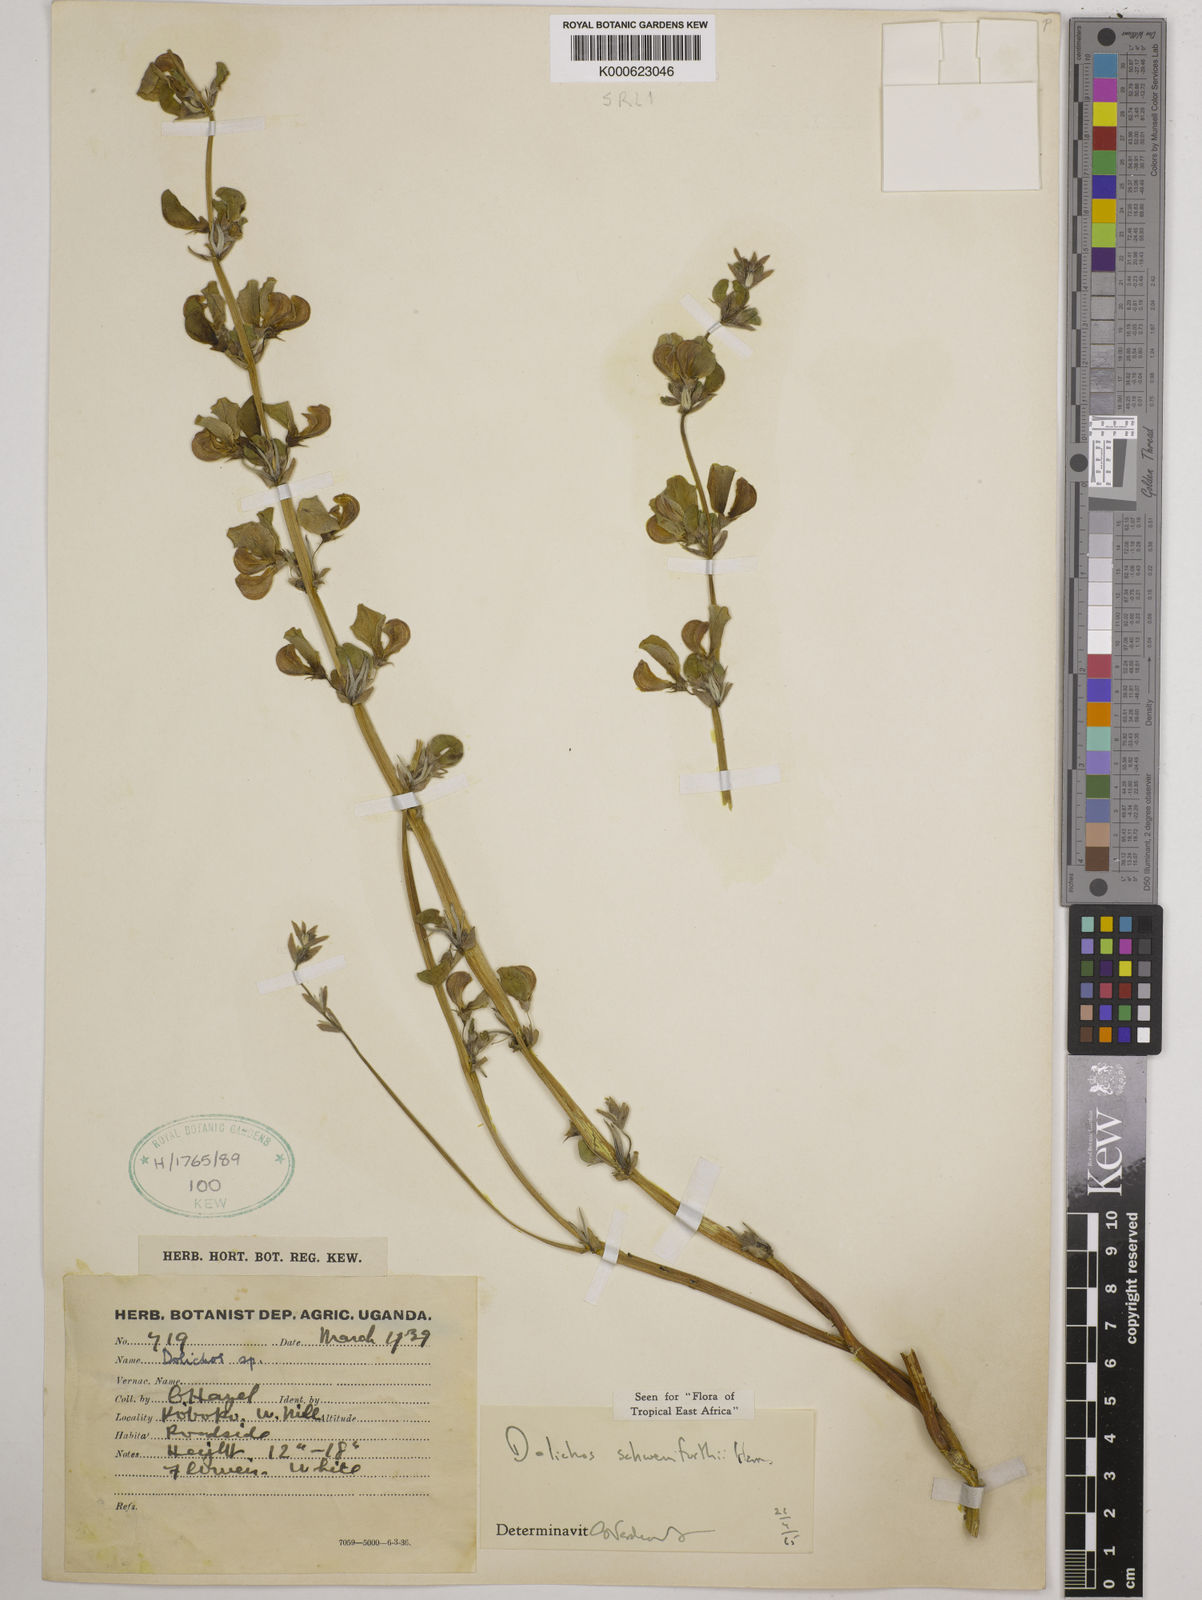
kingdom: Plantae
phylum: Tracheophyta
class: Magnoliopsida
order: Fabales
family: Fabaceae
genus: Dolichos
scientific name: Dolichos
